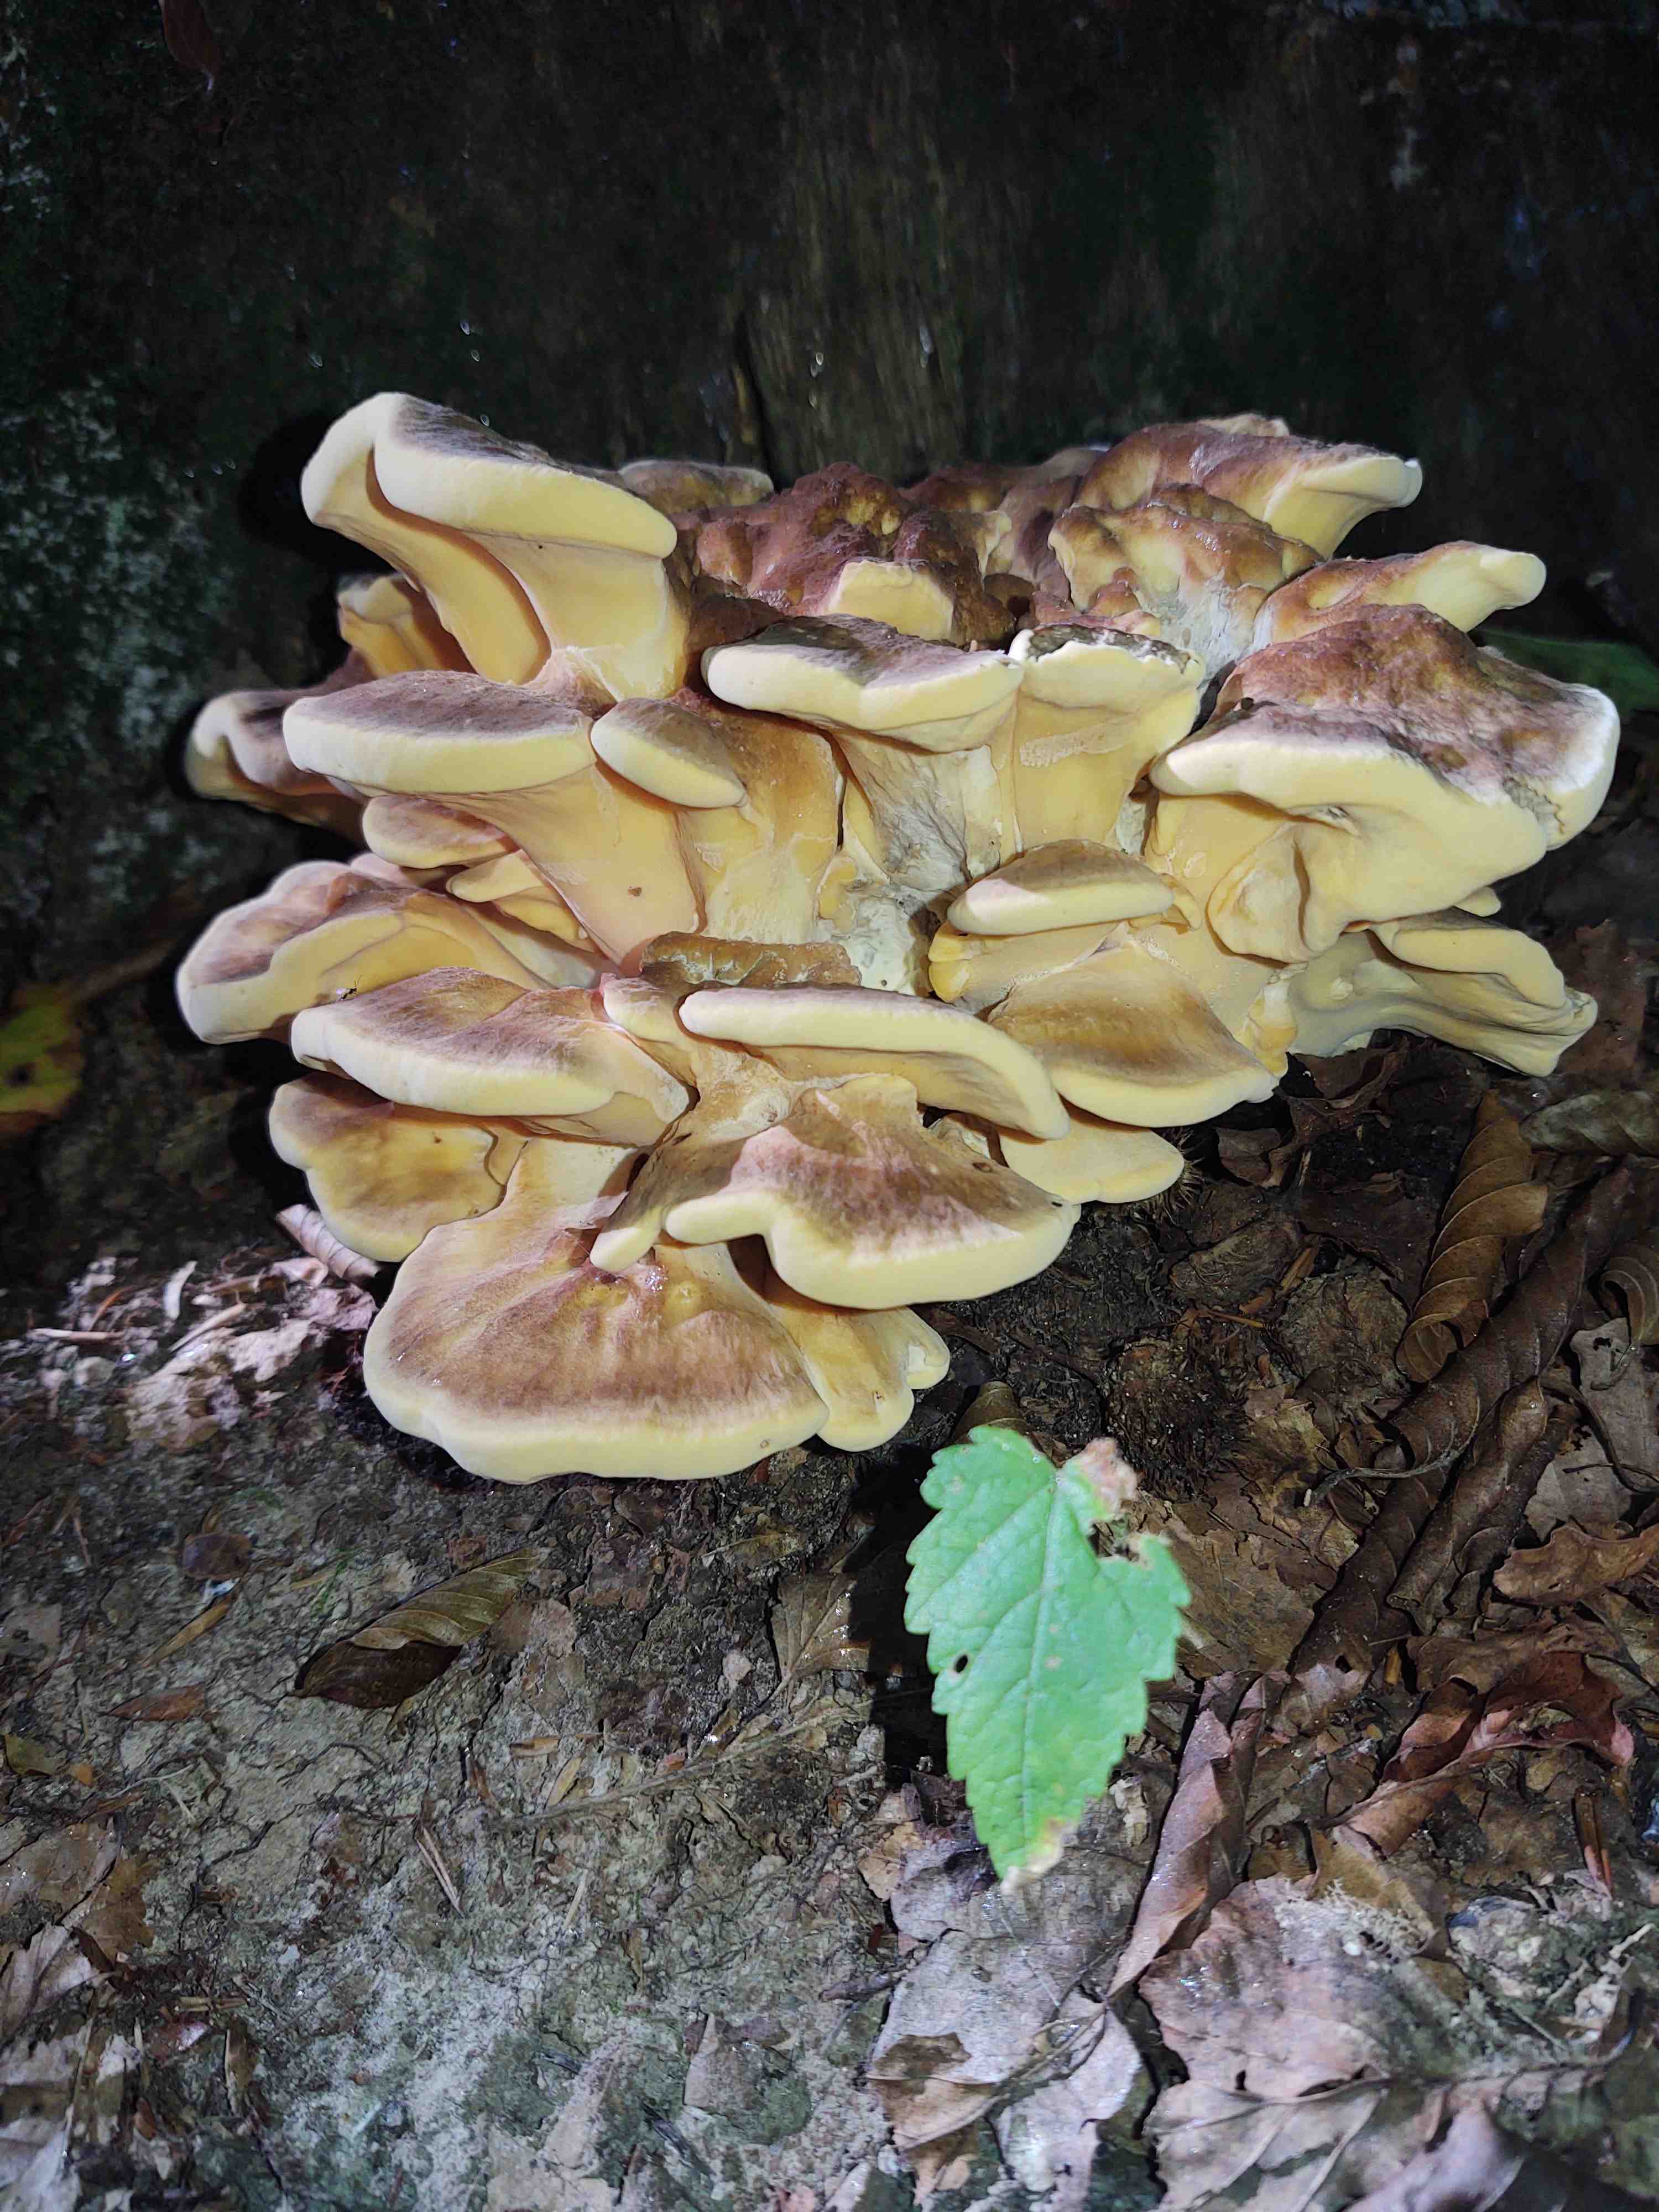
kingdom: Fungi
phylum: Basidiomycota
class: Agaricomycetes
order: Polyporales
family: Meripilaceae
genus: Meripilus
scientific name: Meripilus giganteus
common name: kæmpeporesvamp
